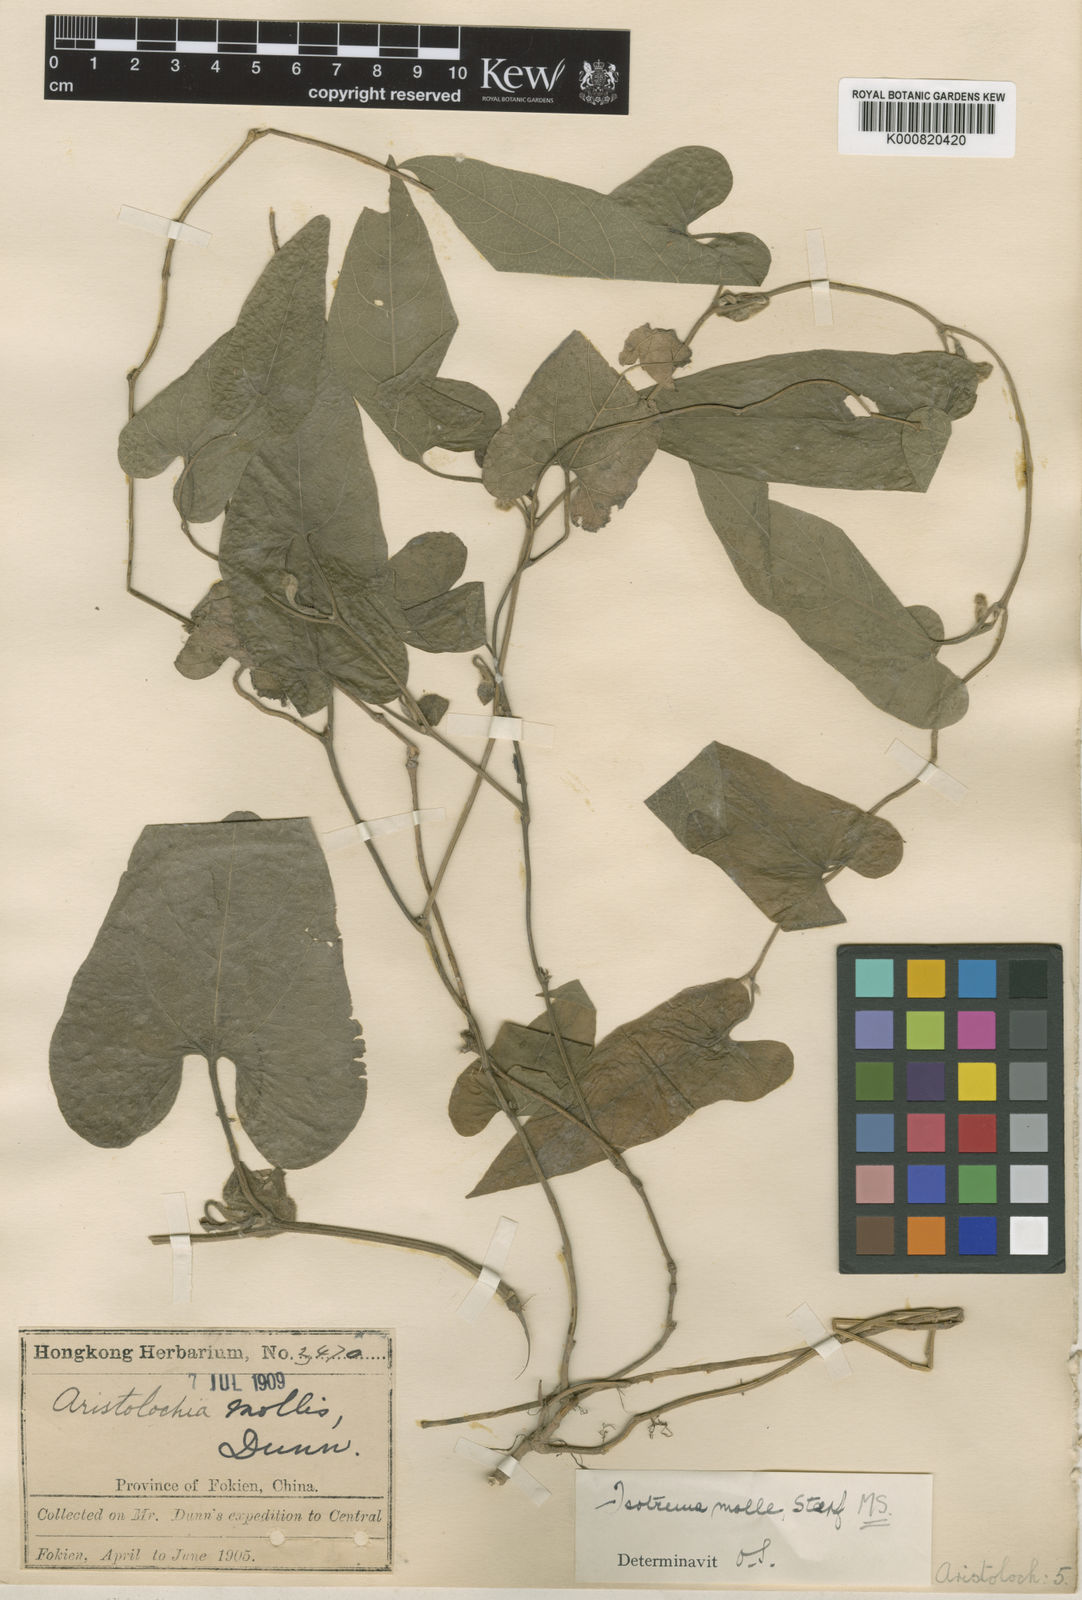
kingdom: Plantae
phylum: Tracheophyta
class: Magnoliopsida
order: Piperales
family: Aristolochiaceae
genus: Isotrema
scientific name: Isotrema
